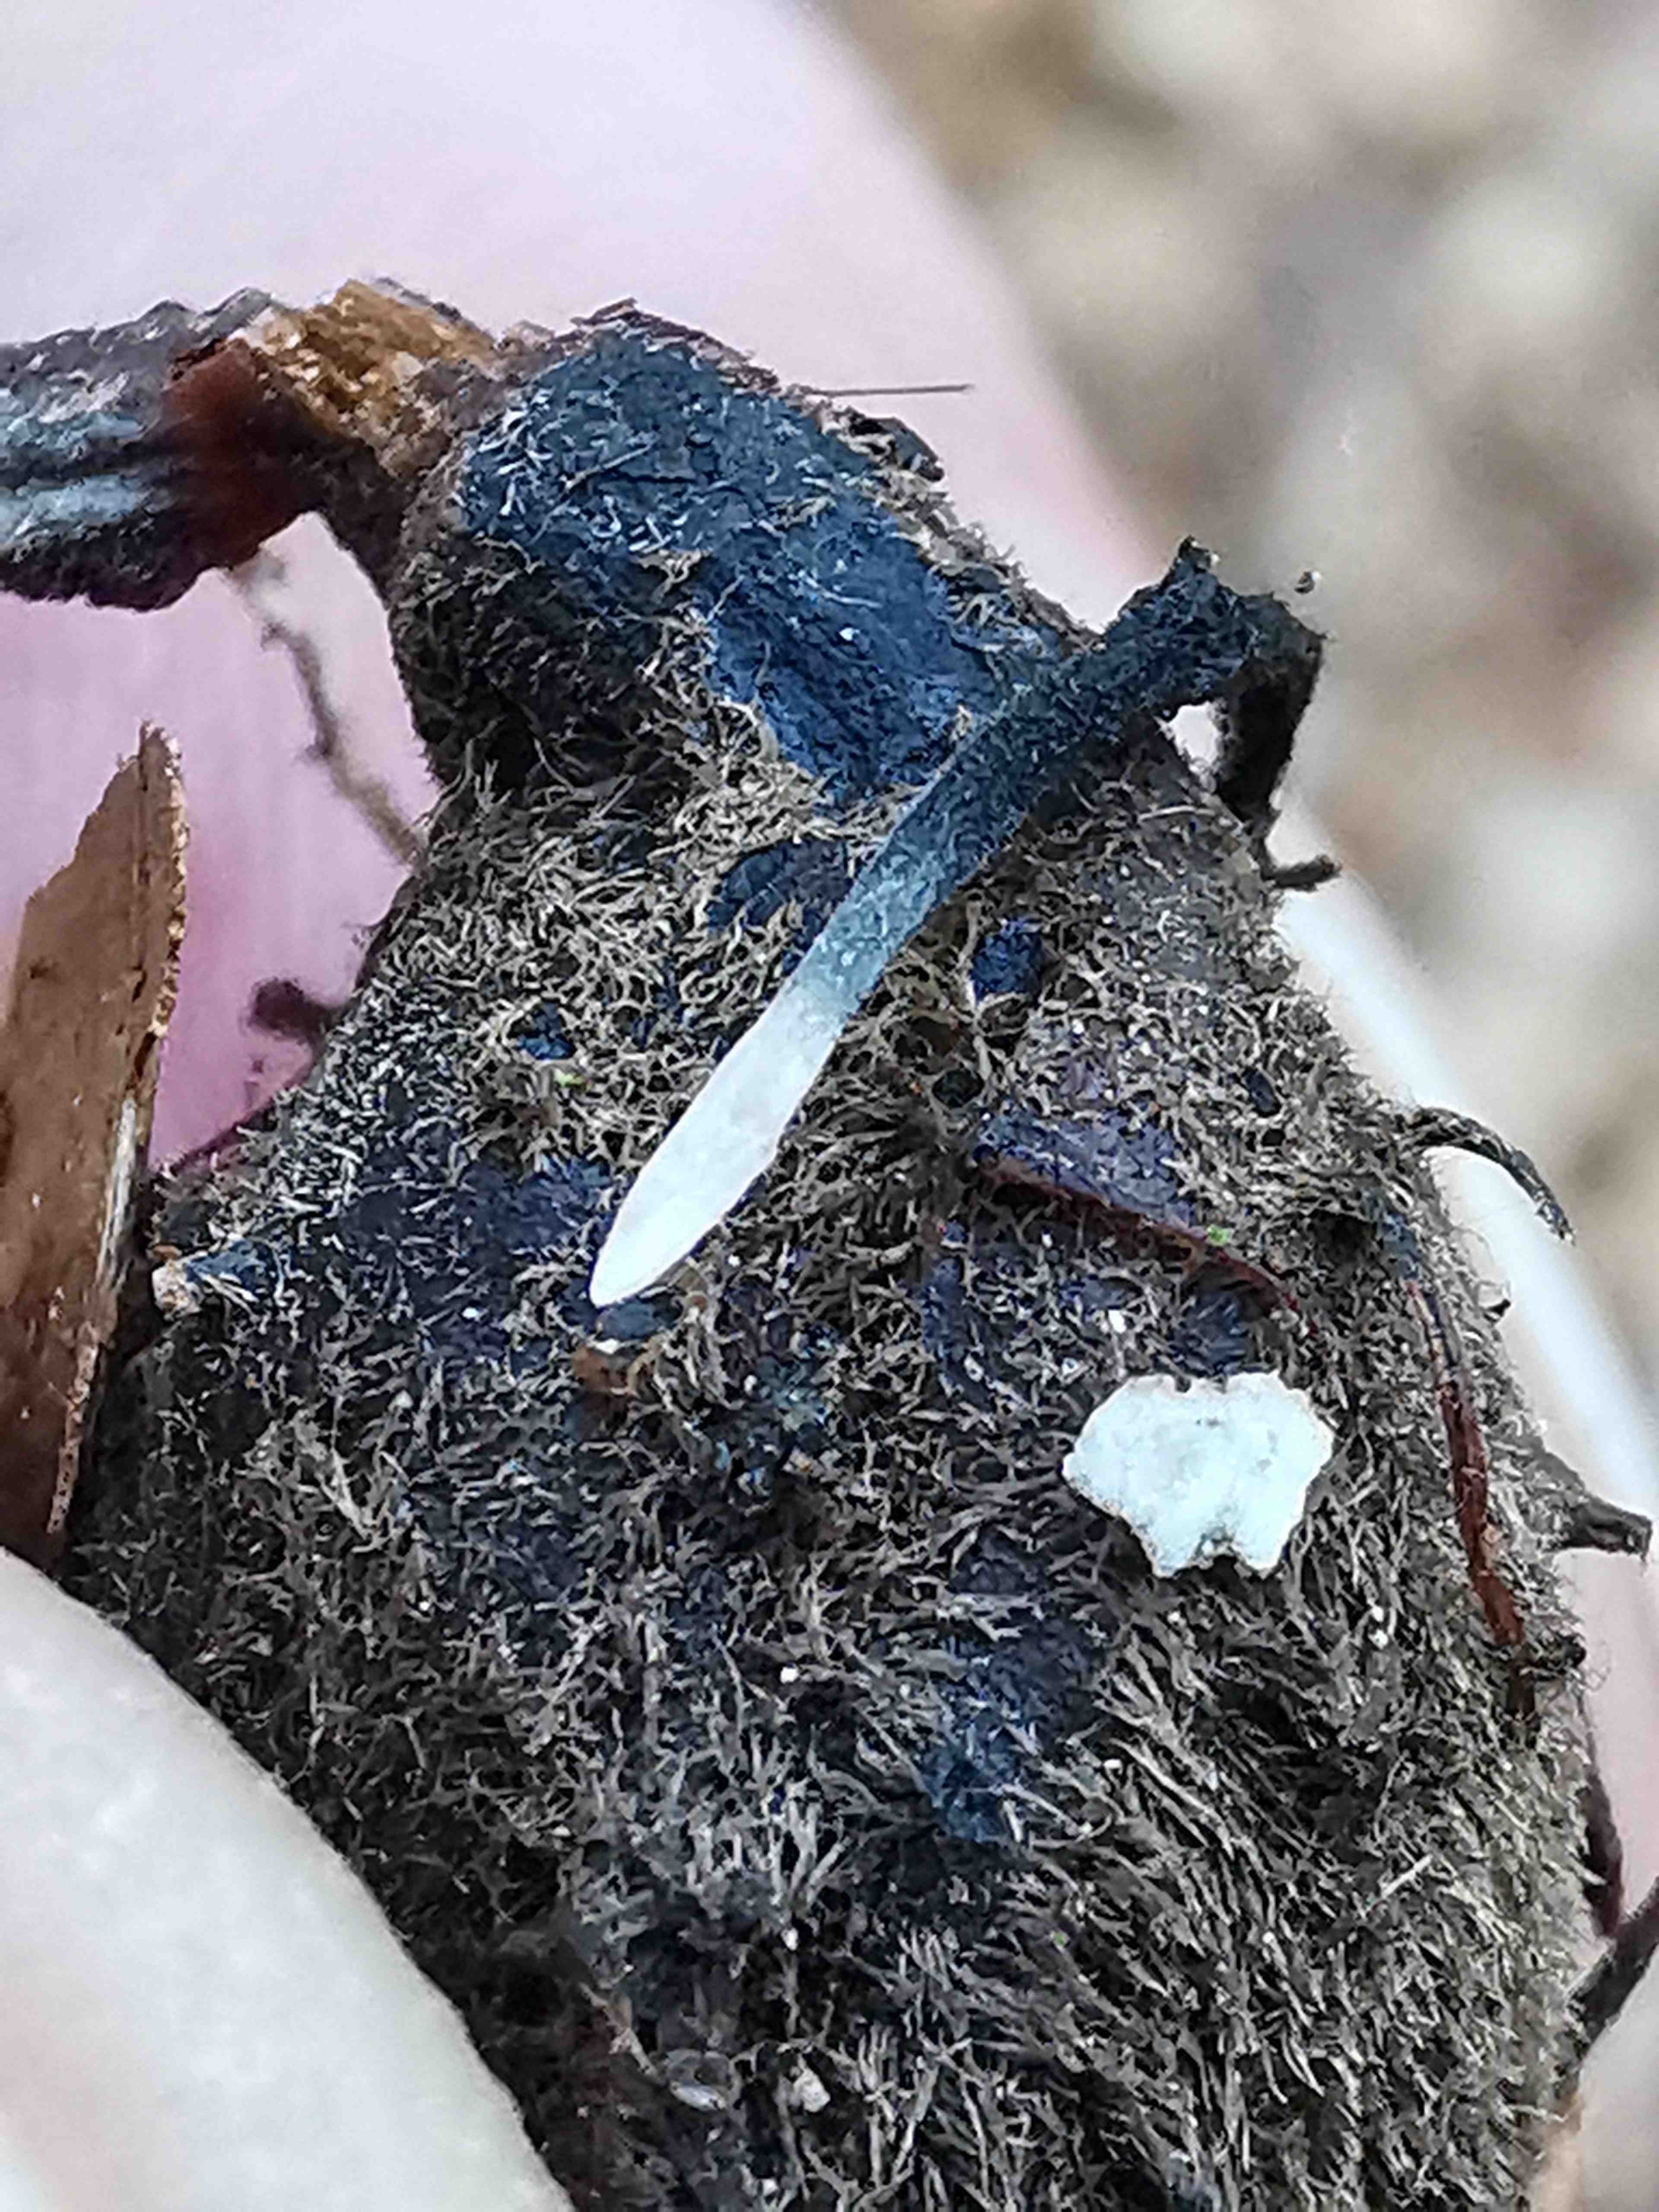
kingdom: Fungi
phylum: Ascomycota
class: Sordariomycetes
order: Xylariales
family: Xylariaceae
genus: Xylaria
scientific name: Xylaria carpophila
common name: bogskål-stødsvamp
